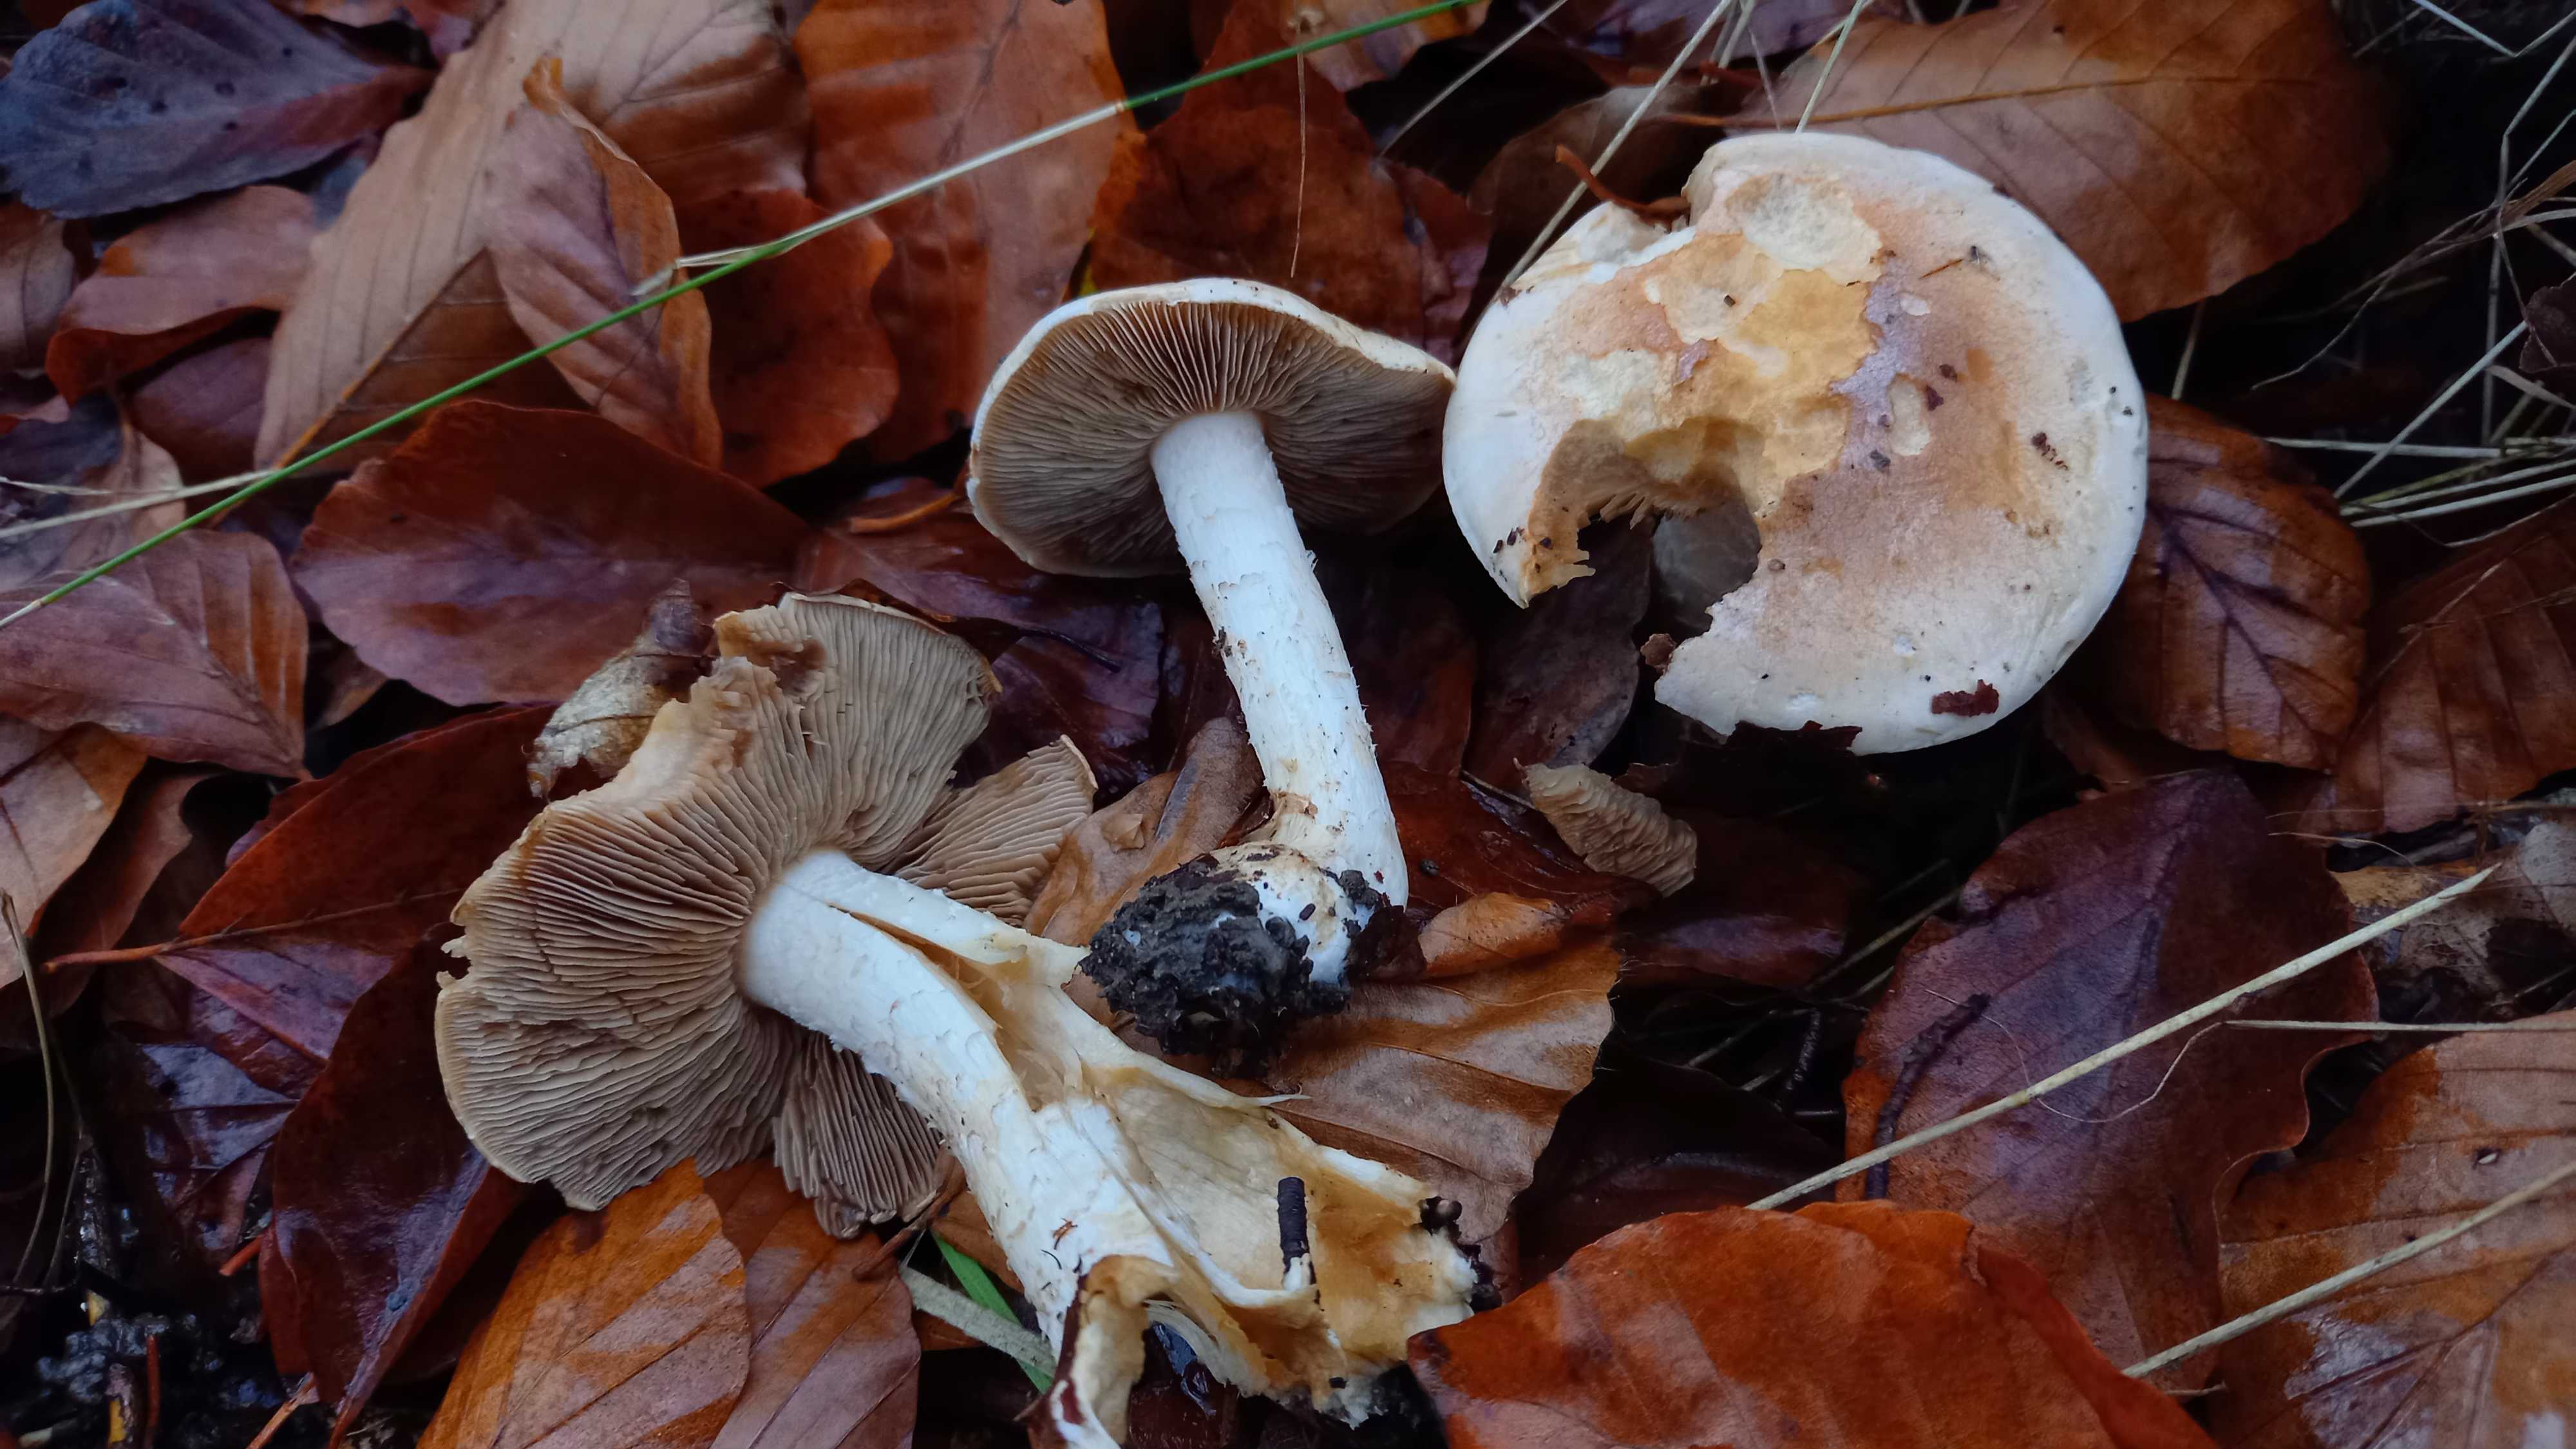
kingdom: Fungi
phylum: Basidiomycota
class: Agaricomycetes
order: Agaricales
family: Hymenogastraceae
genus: Hebeloma
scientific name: Hebeloma sinapizans
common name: ræddike-tåreblad
